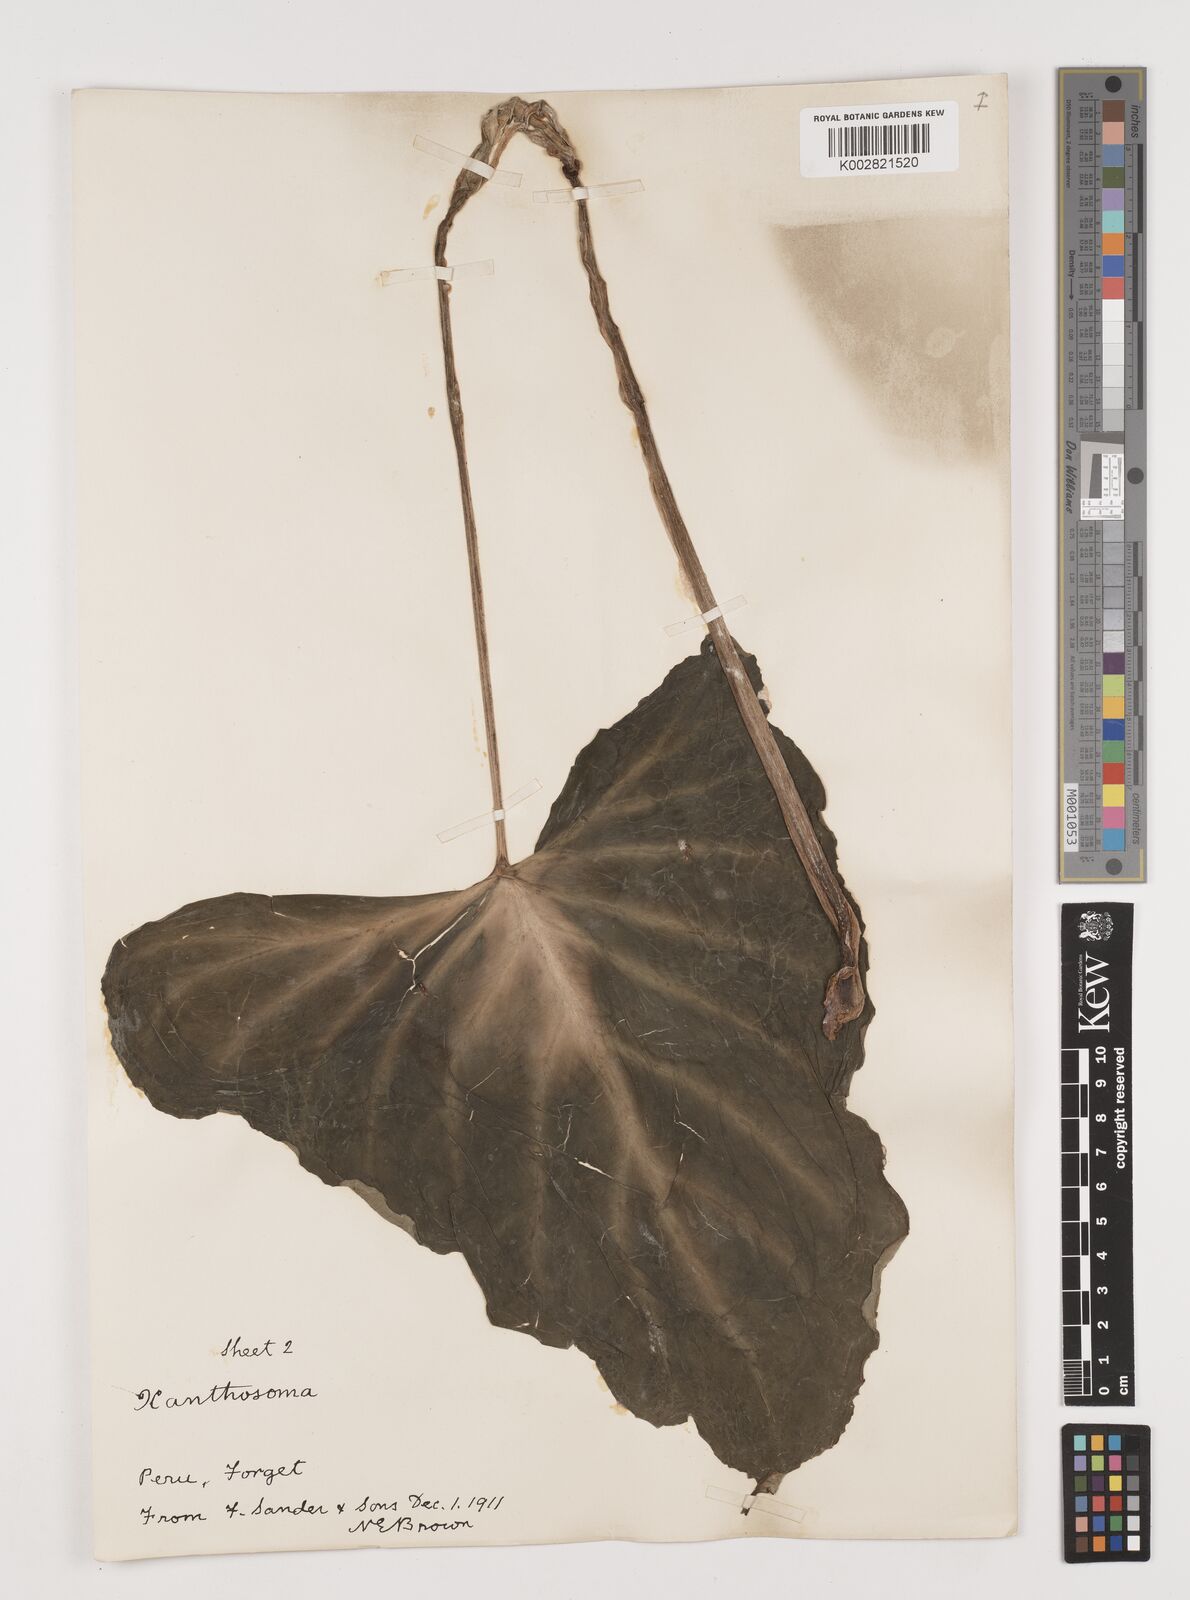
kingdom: Plantae
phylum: Tracheophyta
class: Liliopsida
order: Alismatales
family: Araceae
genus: Xanthosoma
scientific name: Xanthosoma
